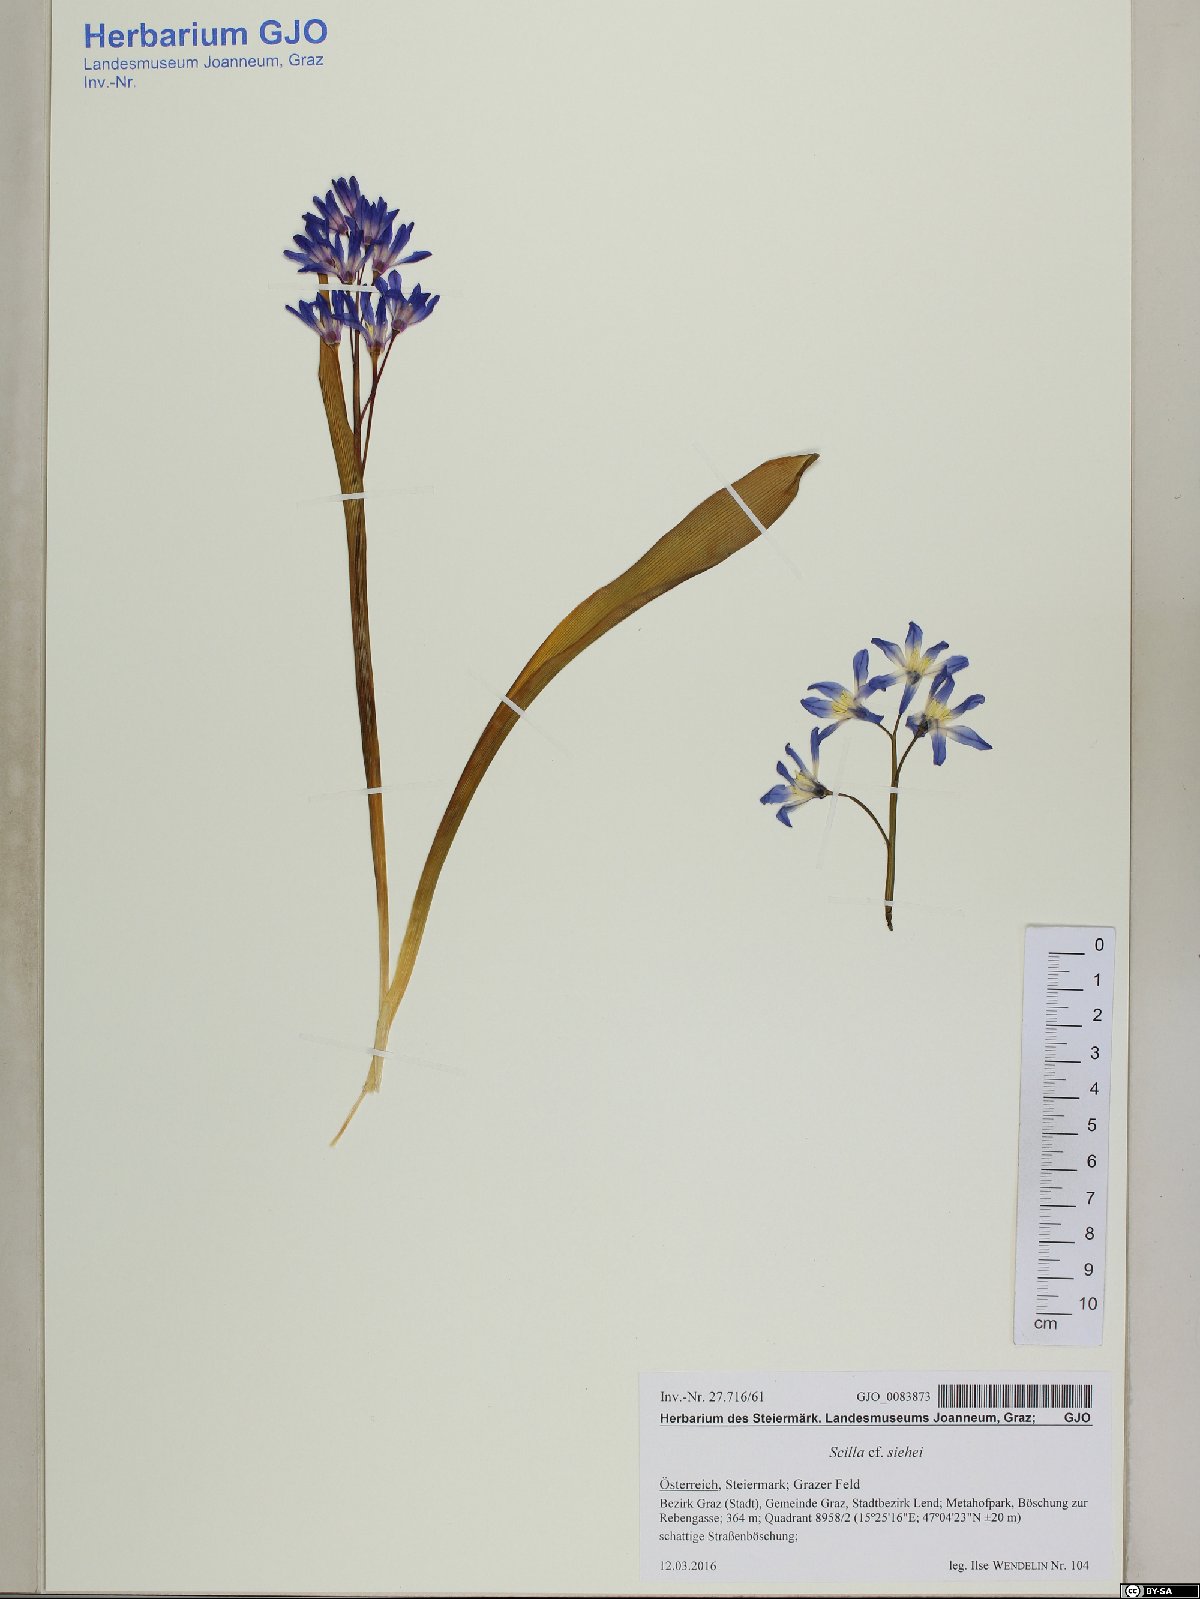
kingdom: Plantae
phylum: Tracheophyta
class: Liliopsida
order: Asparagales
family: Asparagaceae
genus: Scilla
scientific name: Scilla forbesii
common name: Glory-of-the-snow
